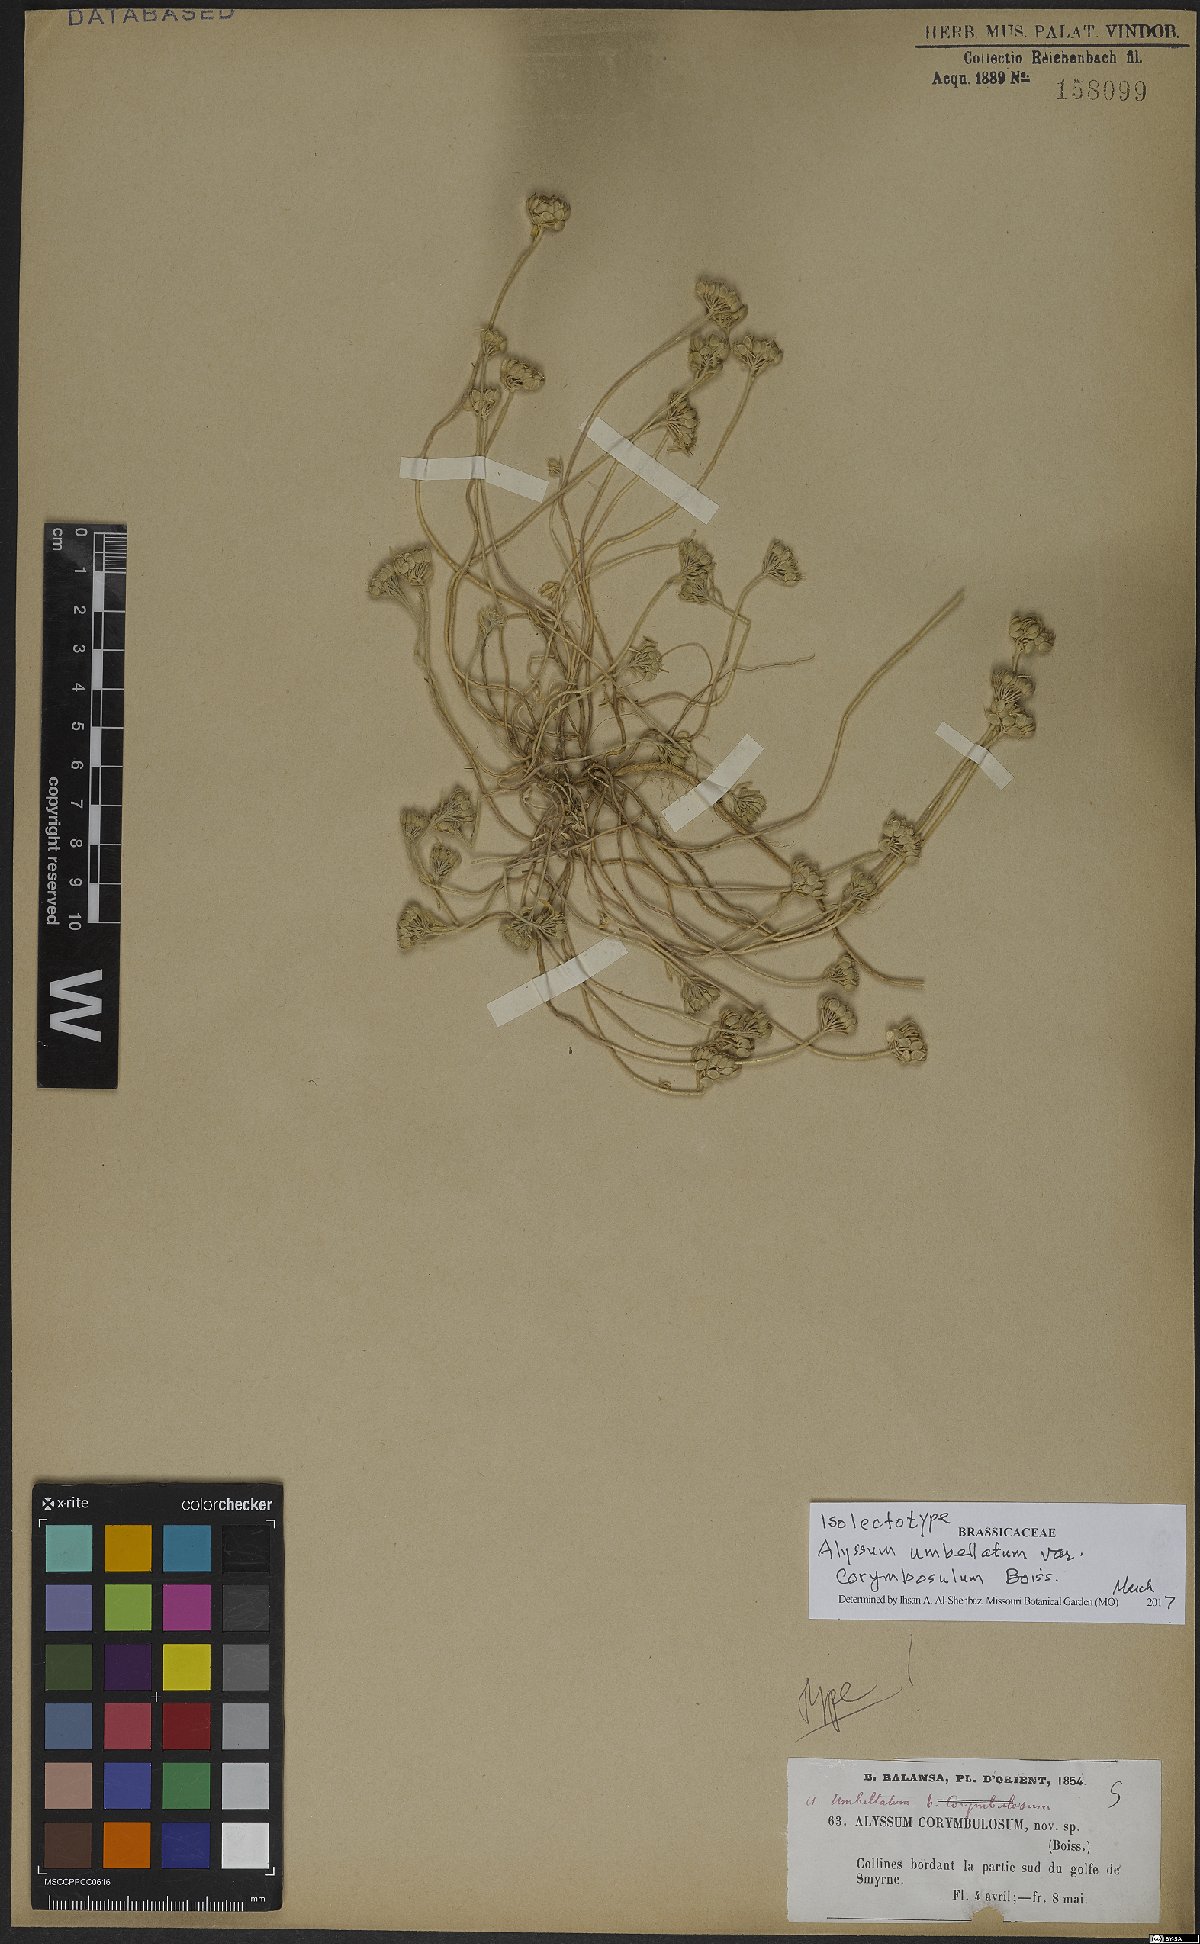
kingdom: Plantae
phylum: Tracheophyta
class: Magnoliopsida
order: Brassicales
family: Brassicaceae
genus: Alyssum
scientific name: Alyssum umbellatum
